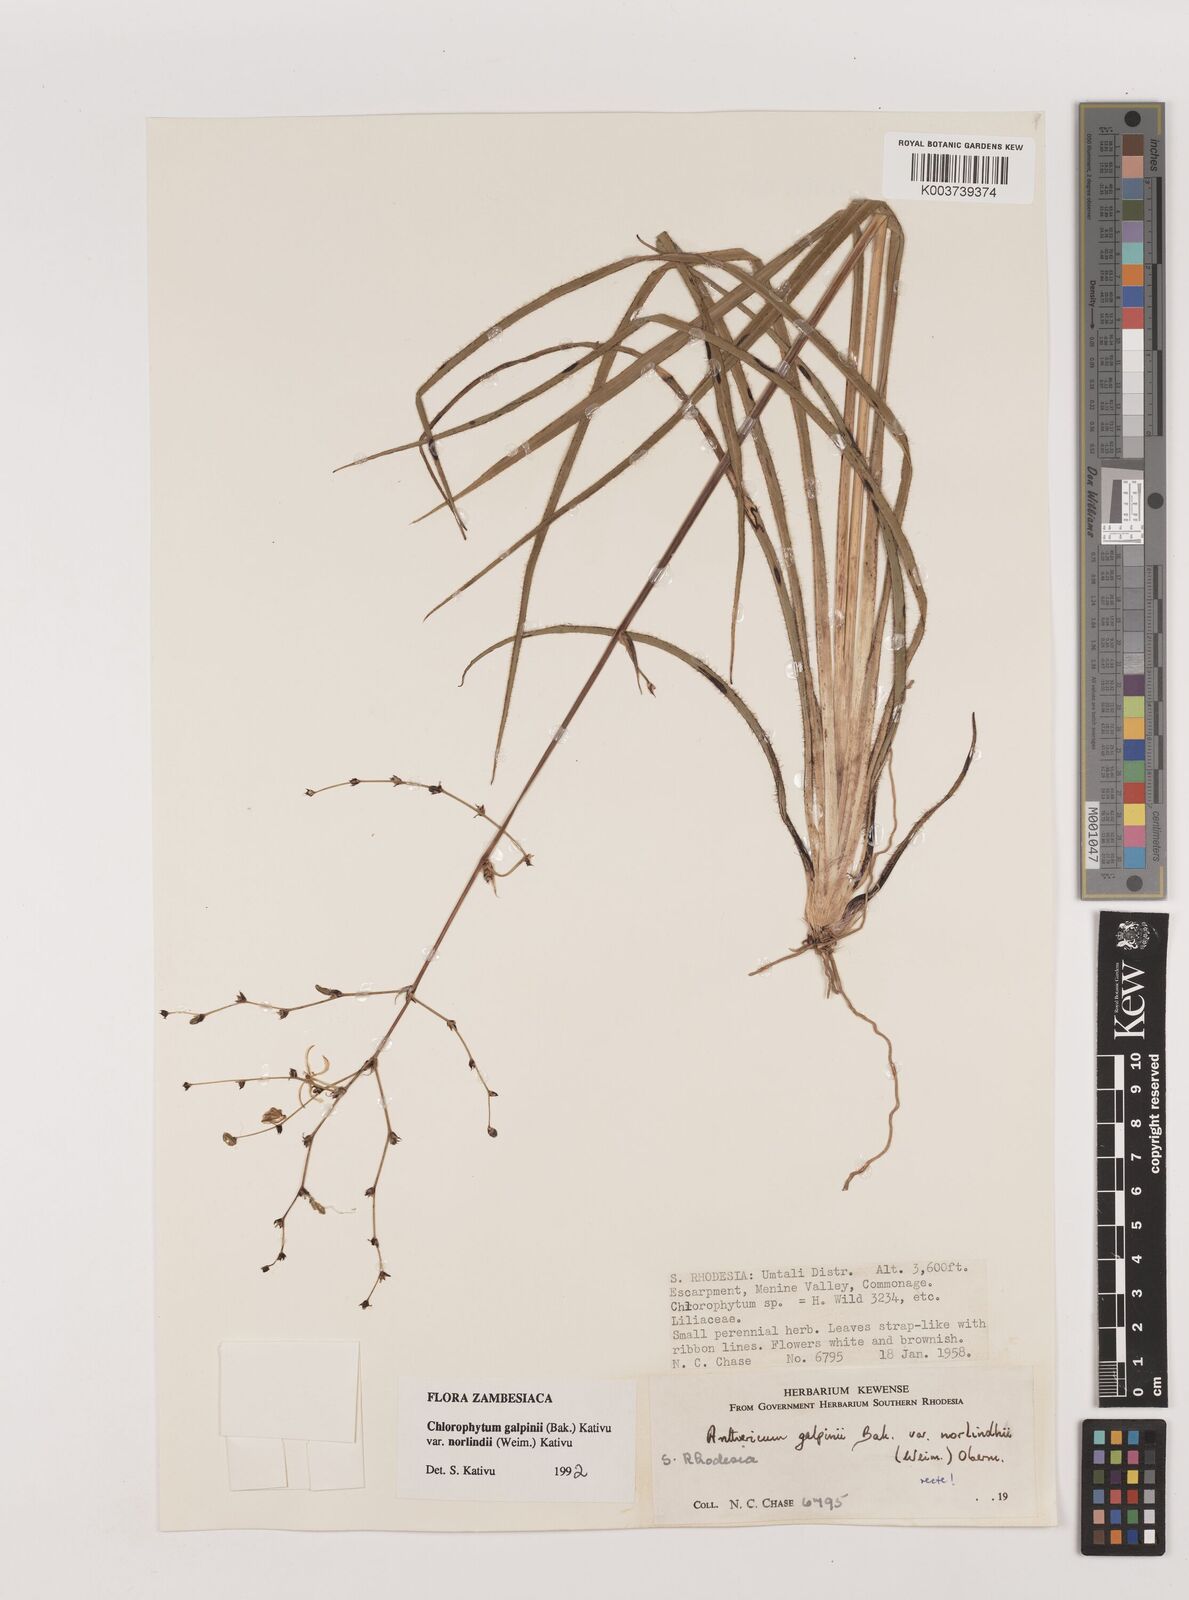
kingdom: Plantae
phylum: Tracheophyta
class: Liliopsida
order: Asparagales
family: Asparagaceae
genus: Chlorophytum
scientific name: Chlorophytum galpinii
